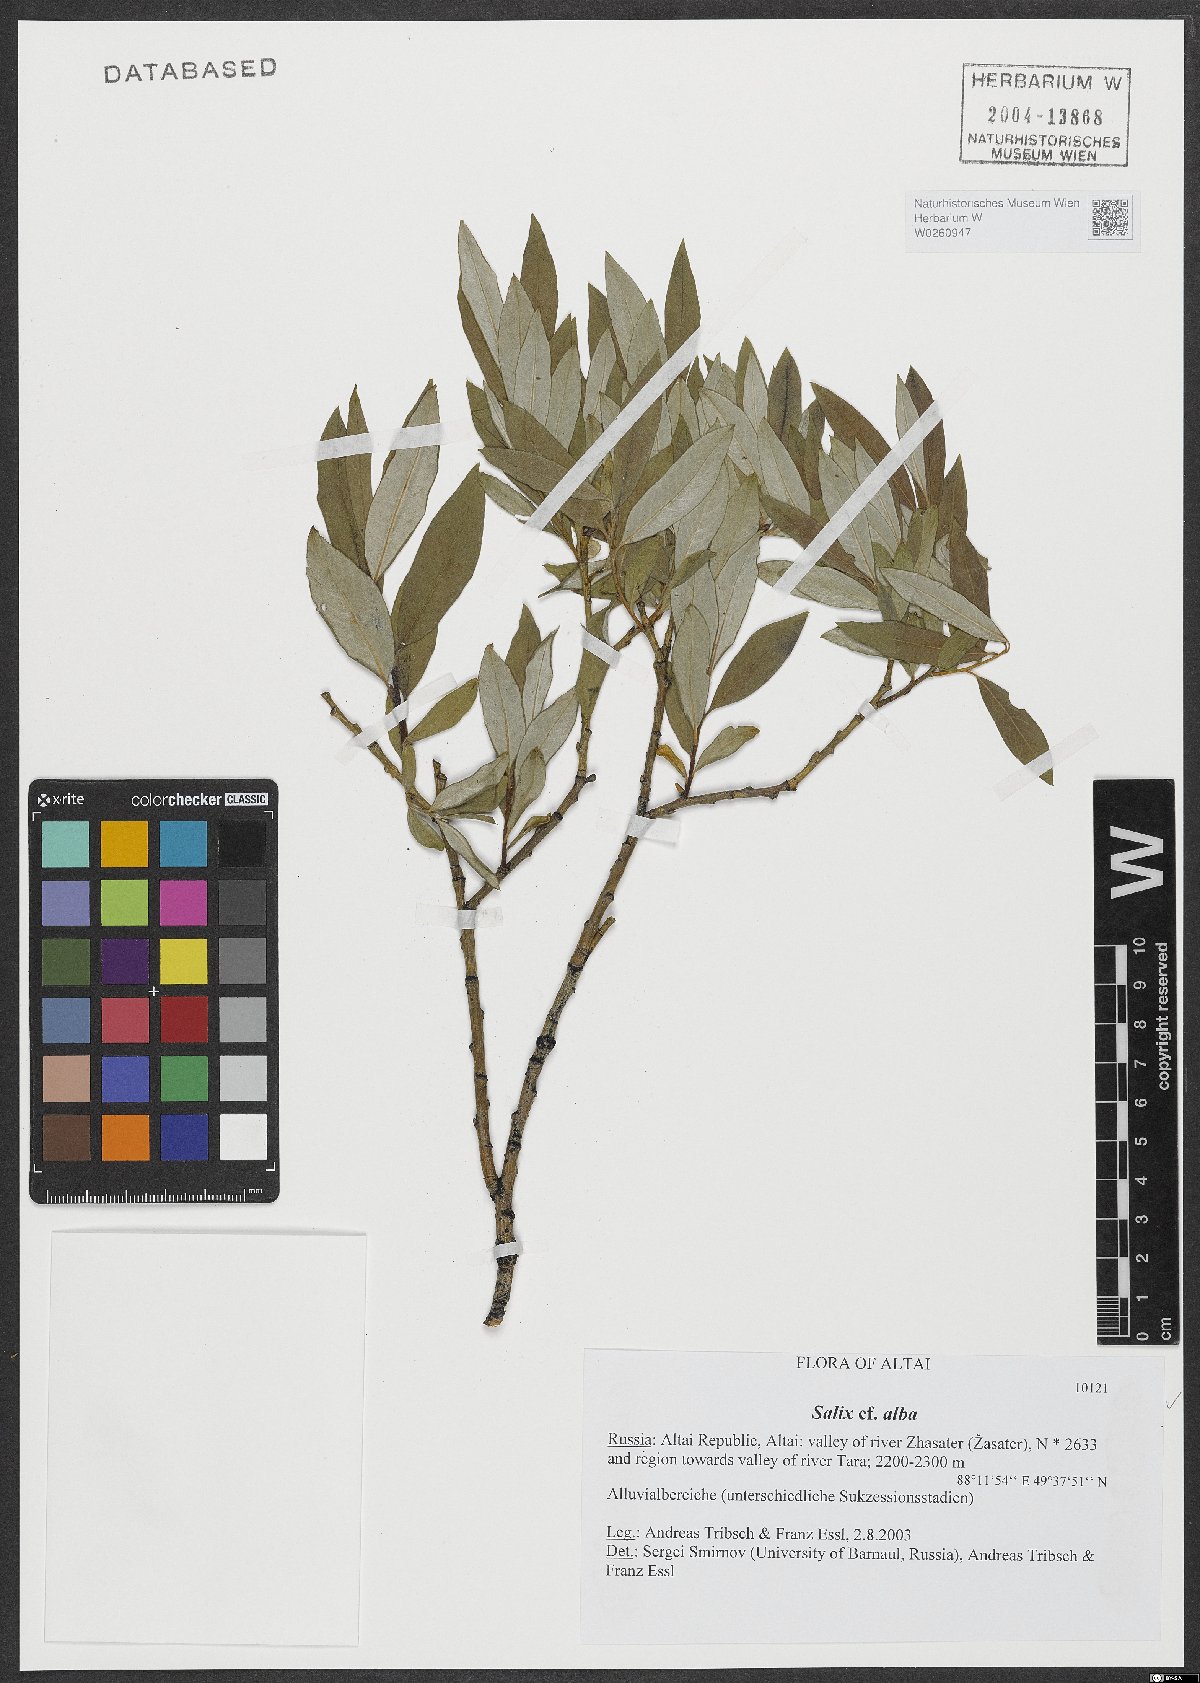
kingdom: Plantae
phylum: Tracheophyta
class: Magnoliopsida
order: Malpighiales
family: Salicaceae
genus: Salix
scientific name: Salix alba
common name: White willow
